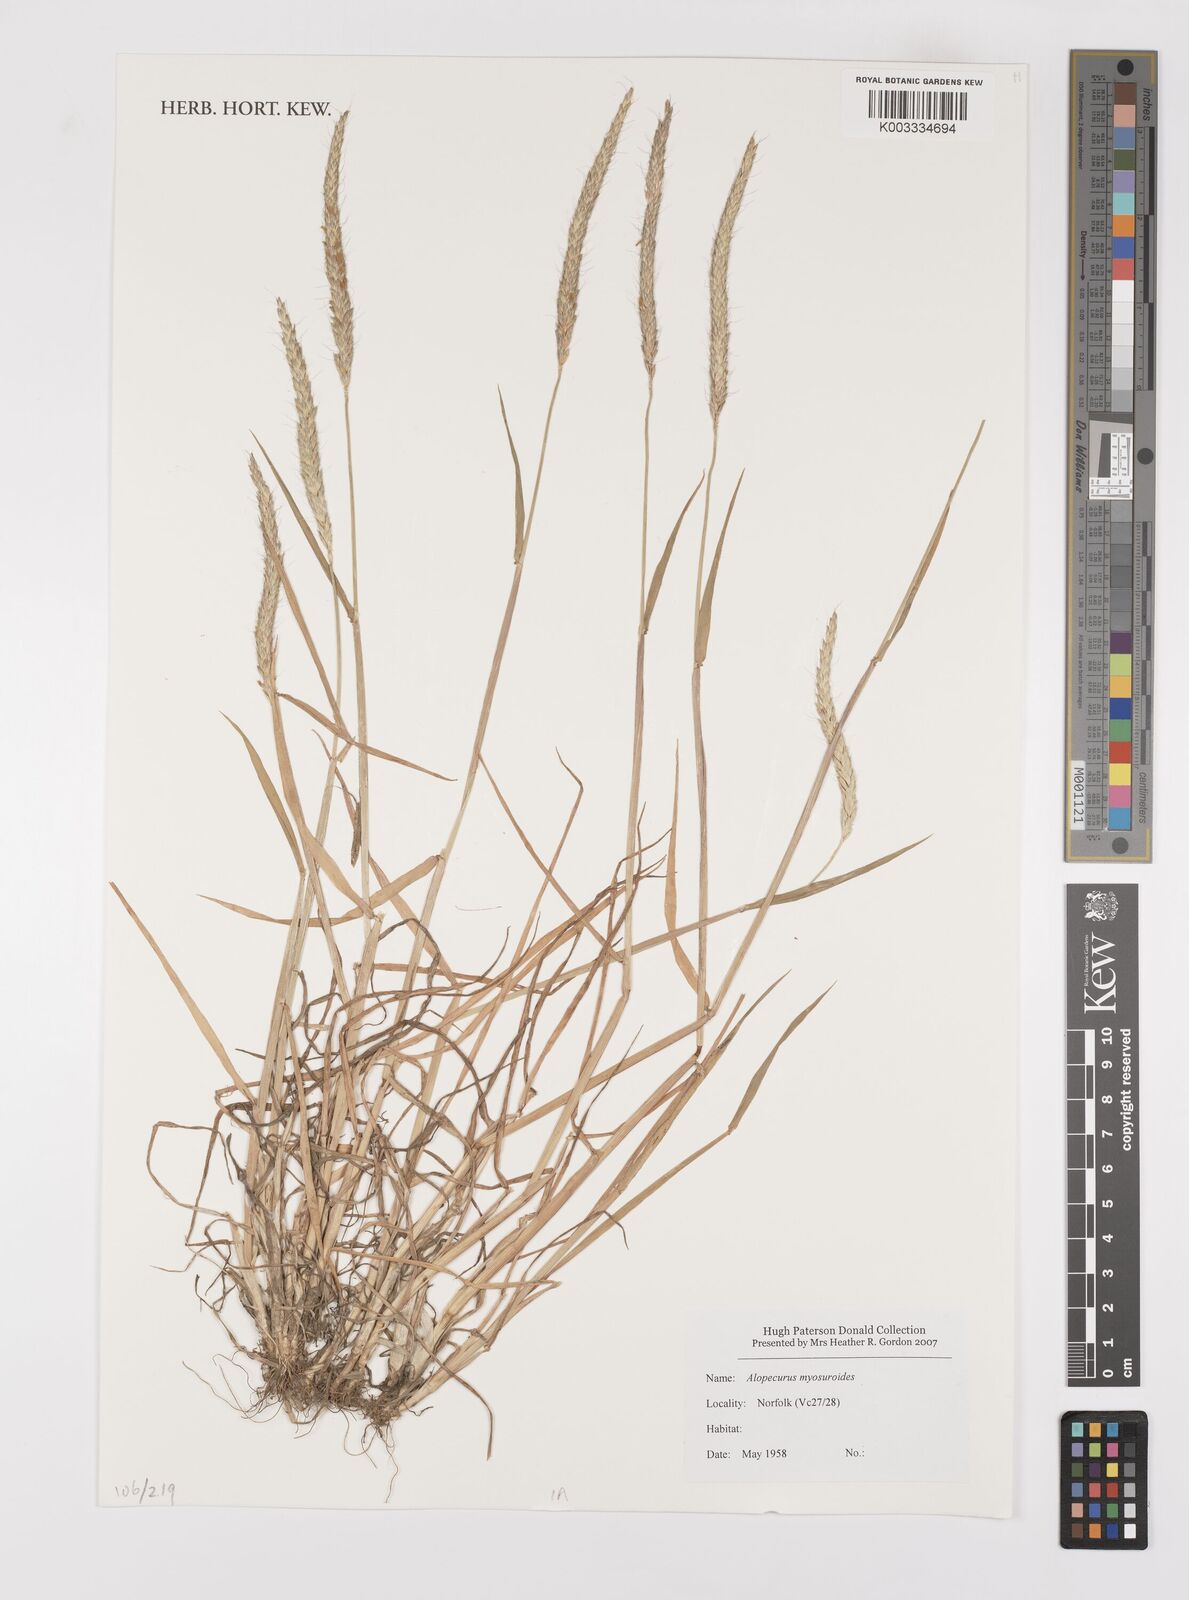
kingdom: Plantae
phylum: Tracheophyta
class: Liliopsida
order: Poales
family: Poaceae
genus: Alopecurus
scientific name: Alopecurus myosuroides
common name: Black-grass
